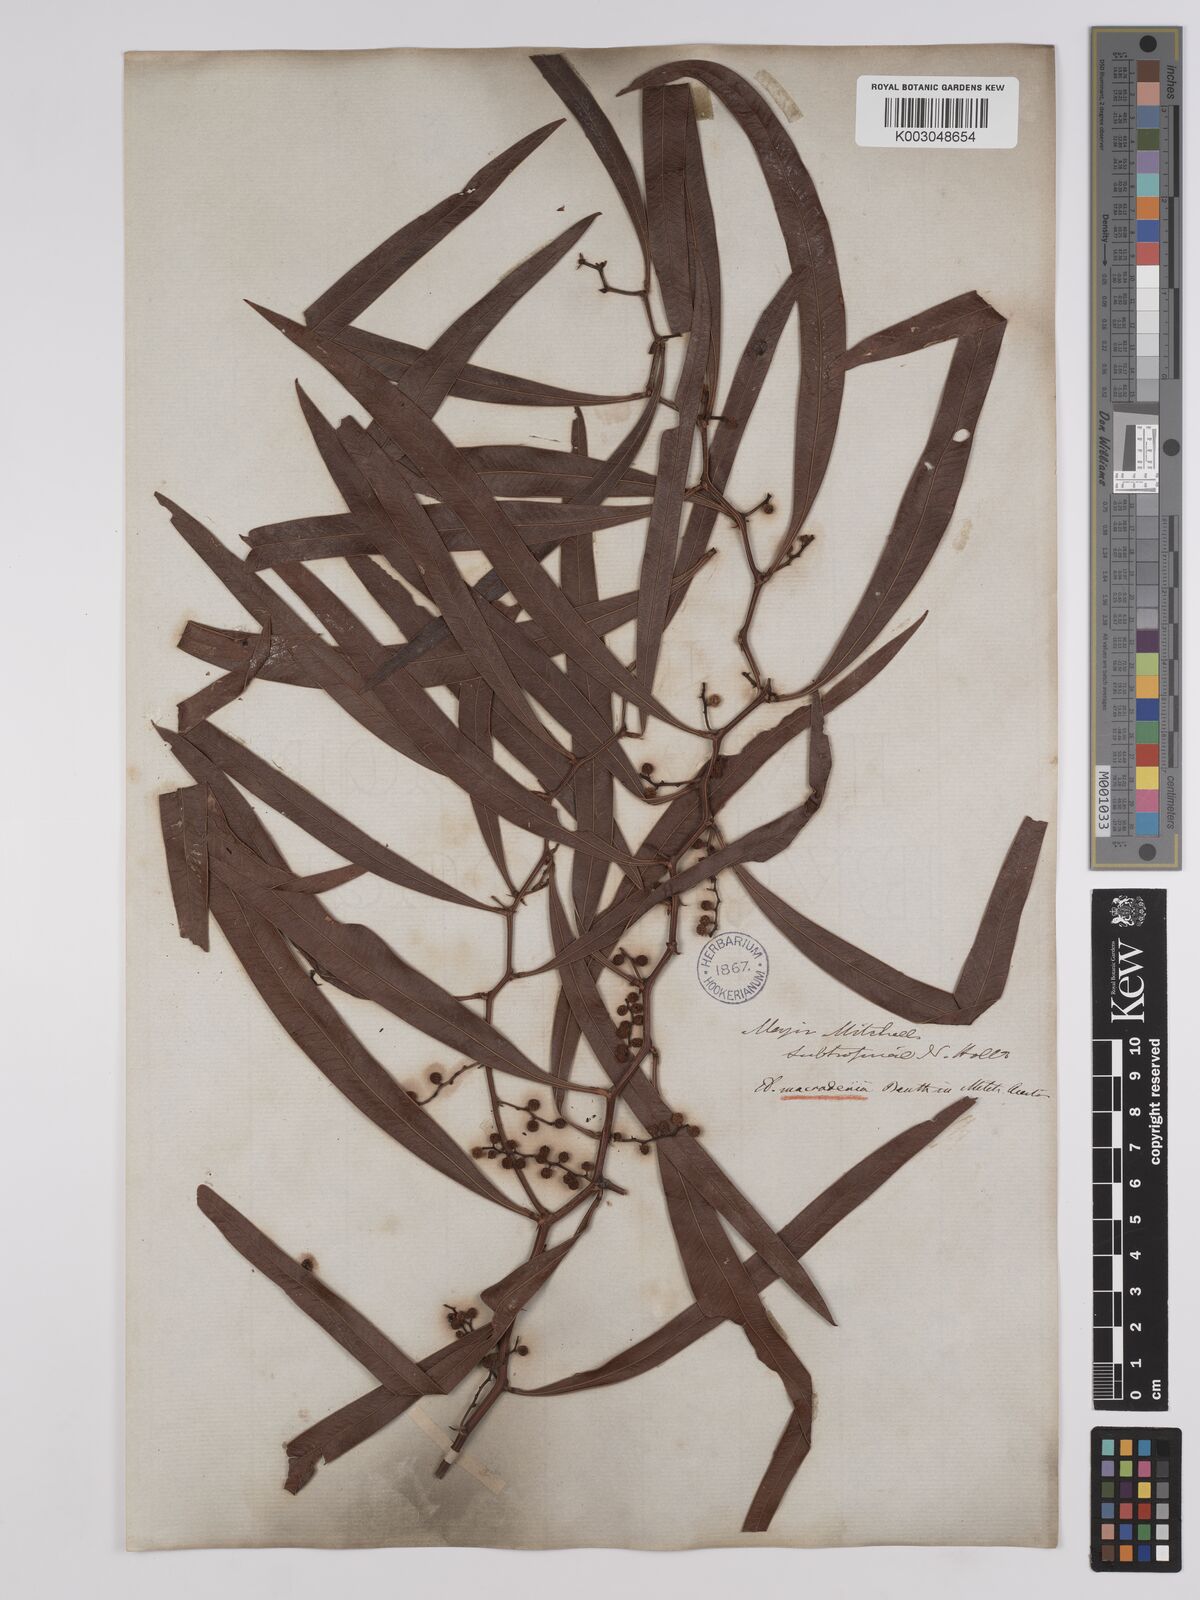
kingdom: Plantae
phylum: Tracheophyta
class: Magnoliopsida
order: Fabales
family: Fabaceae
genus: Acacia
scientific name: Acacia macradenia
